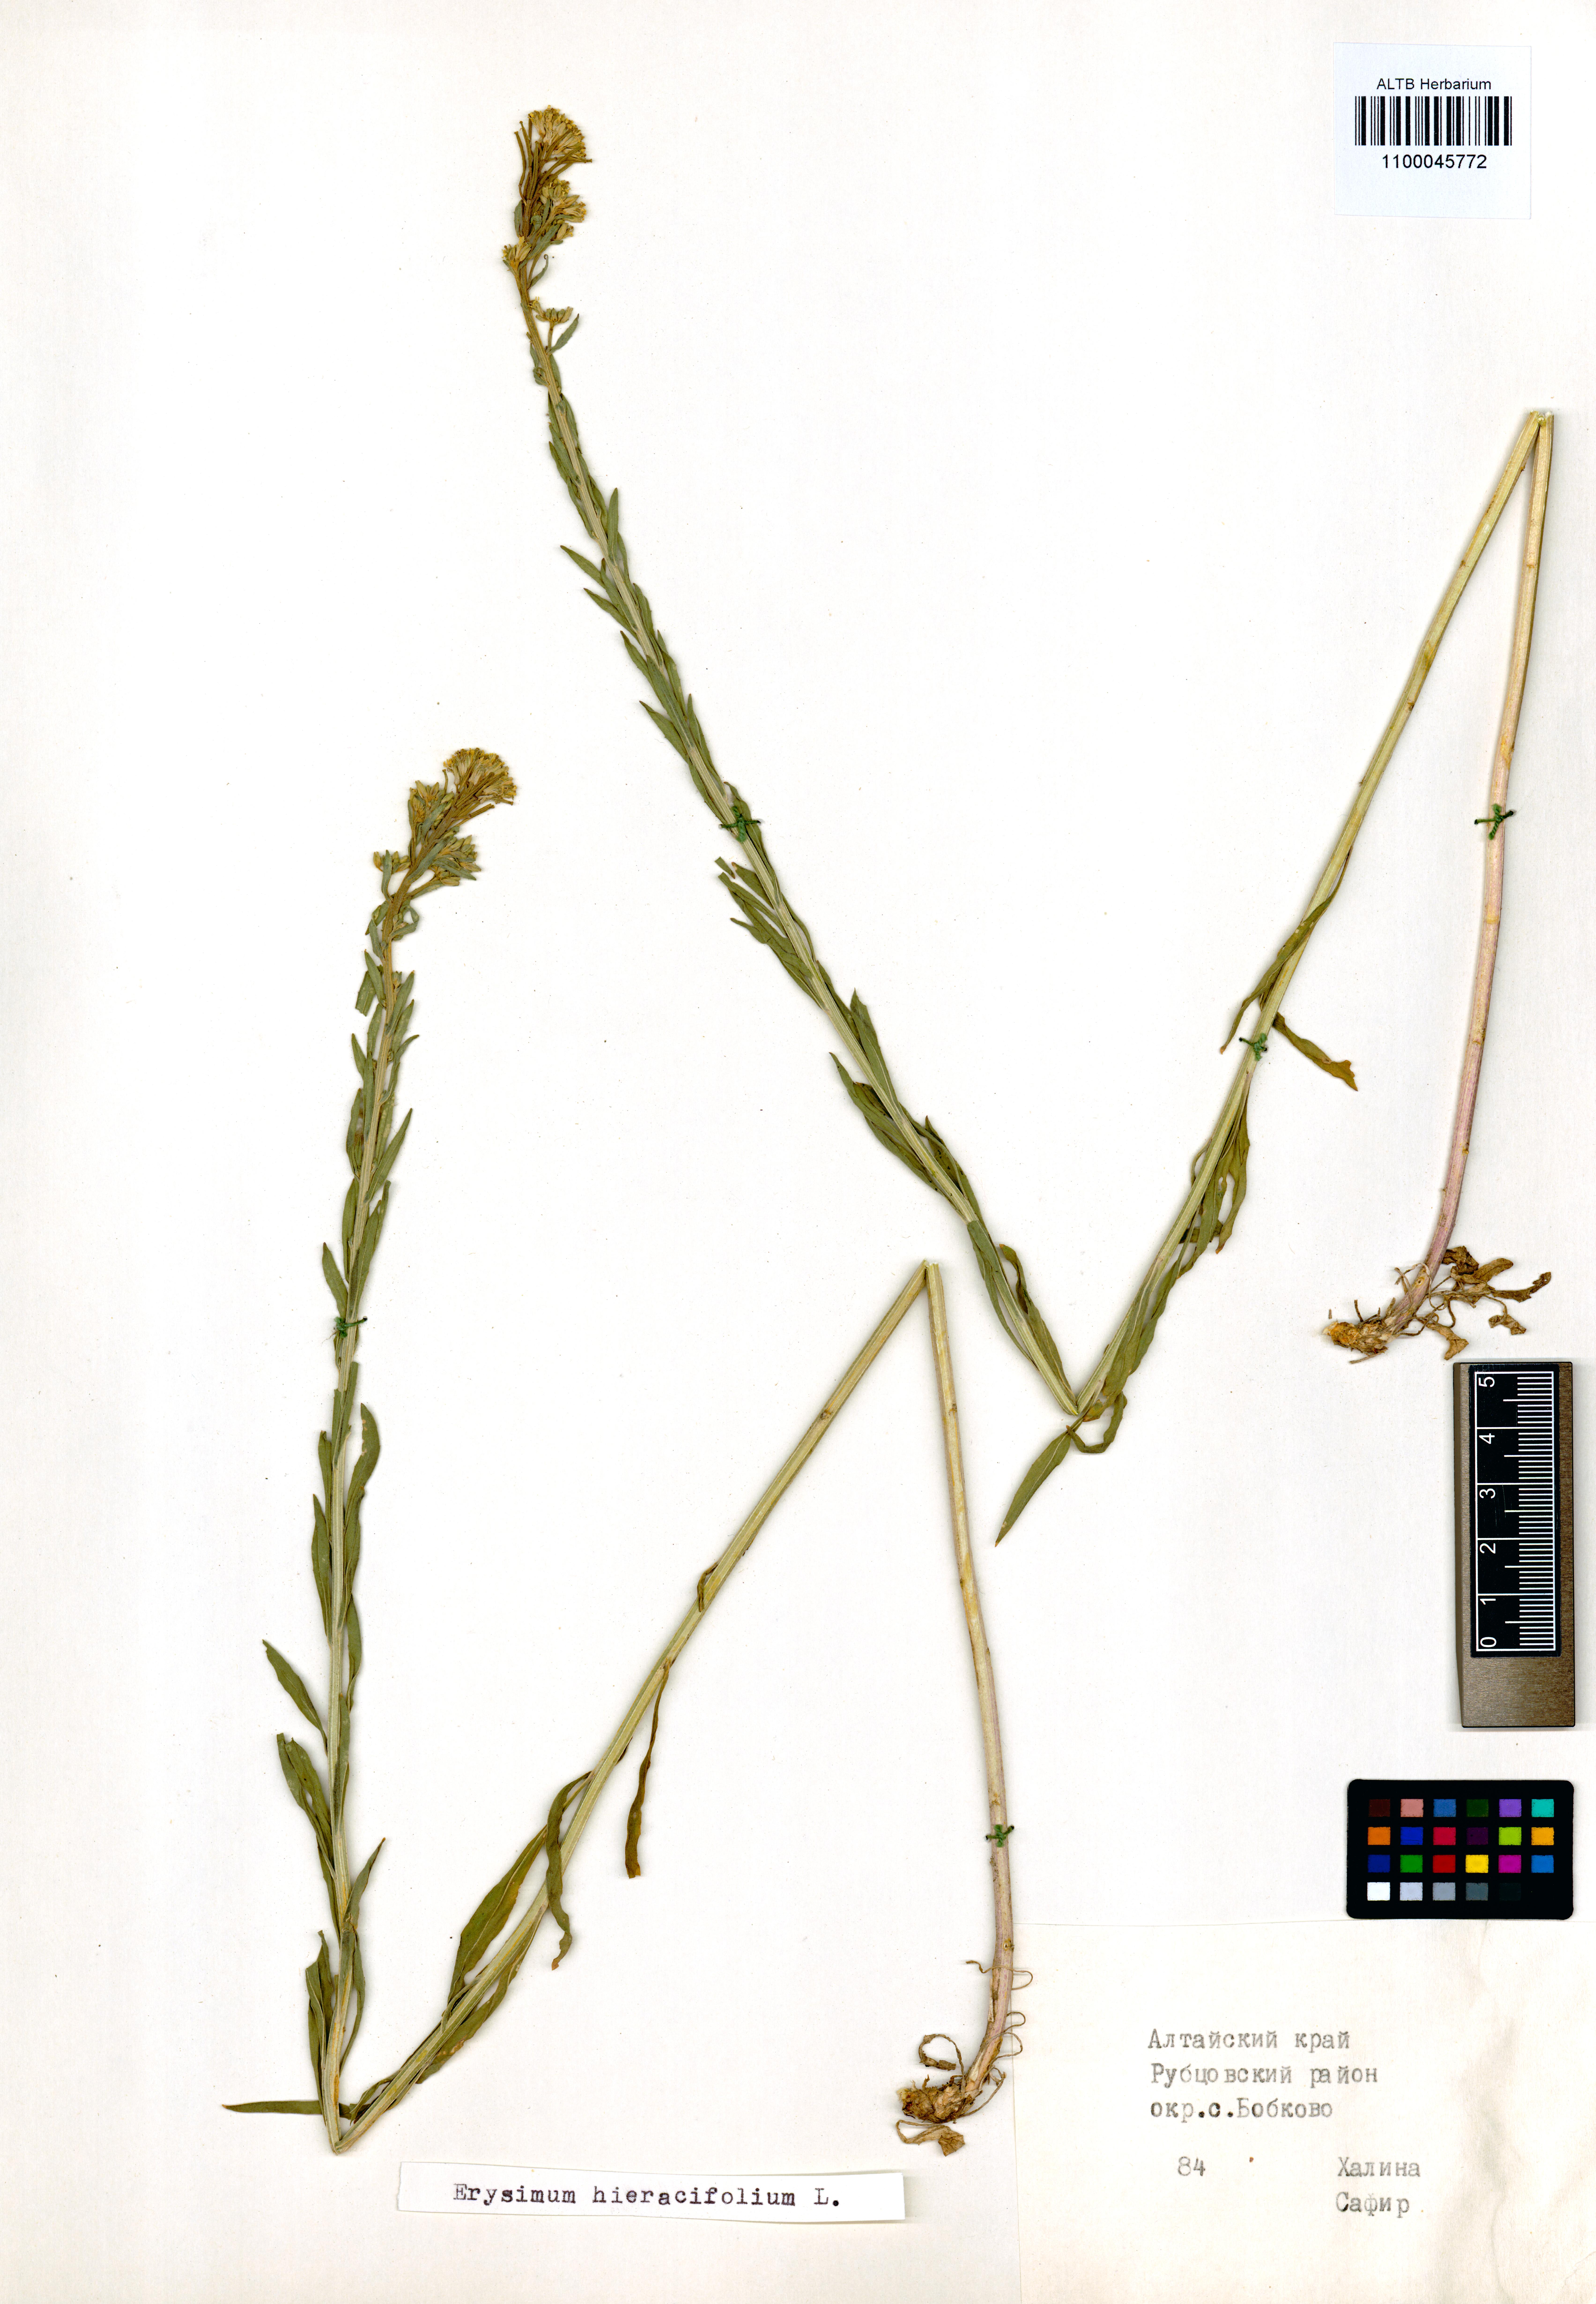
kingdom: Plantae
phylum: Tracheophyta
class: Magnoliopsida
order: Brassicales
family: Brassicaceae
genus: Erysimum
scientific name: Erysimum hieraciifolium
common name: European wallflower
